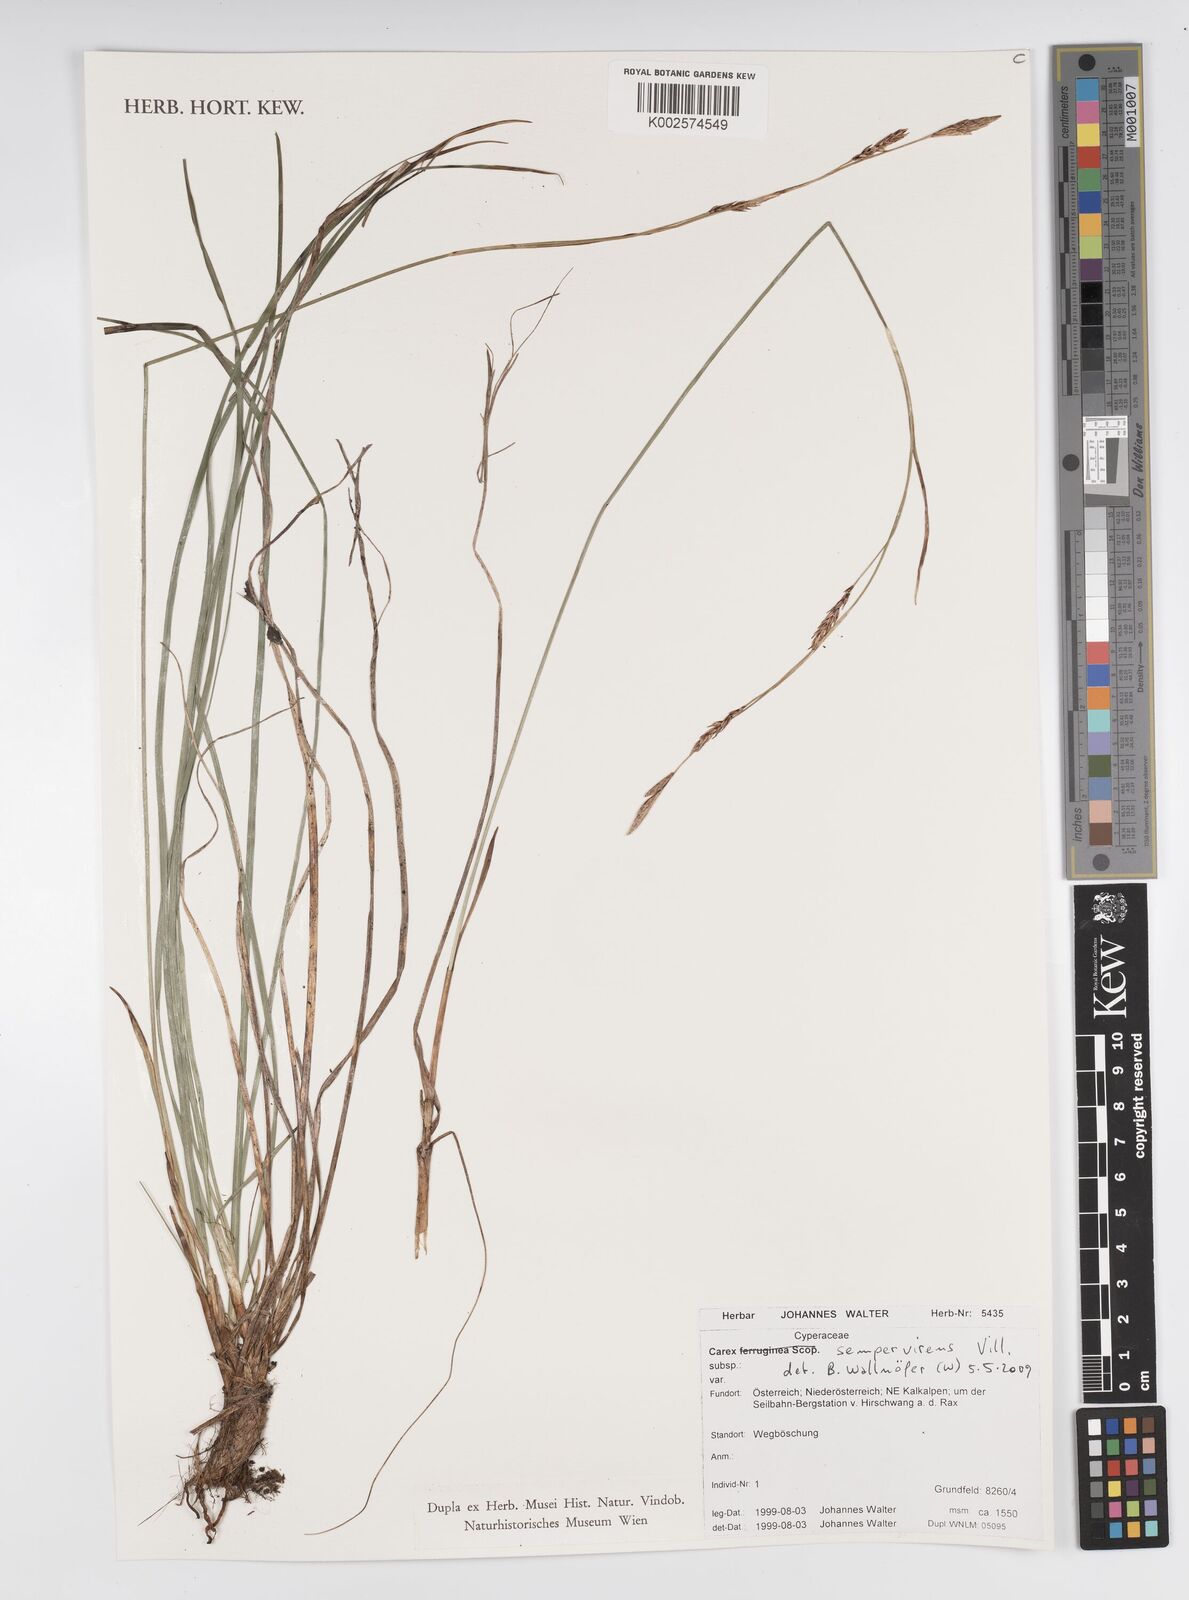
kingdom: Plantae
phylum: Tracheophyta
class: Liliopsida
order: Poales
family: Cyperaceae
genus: Carex
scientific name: Carex sempervirens
